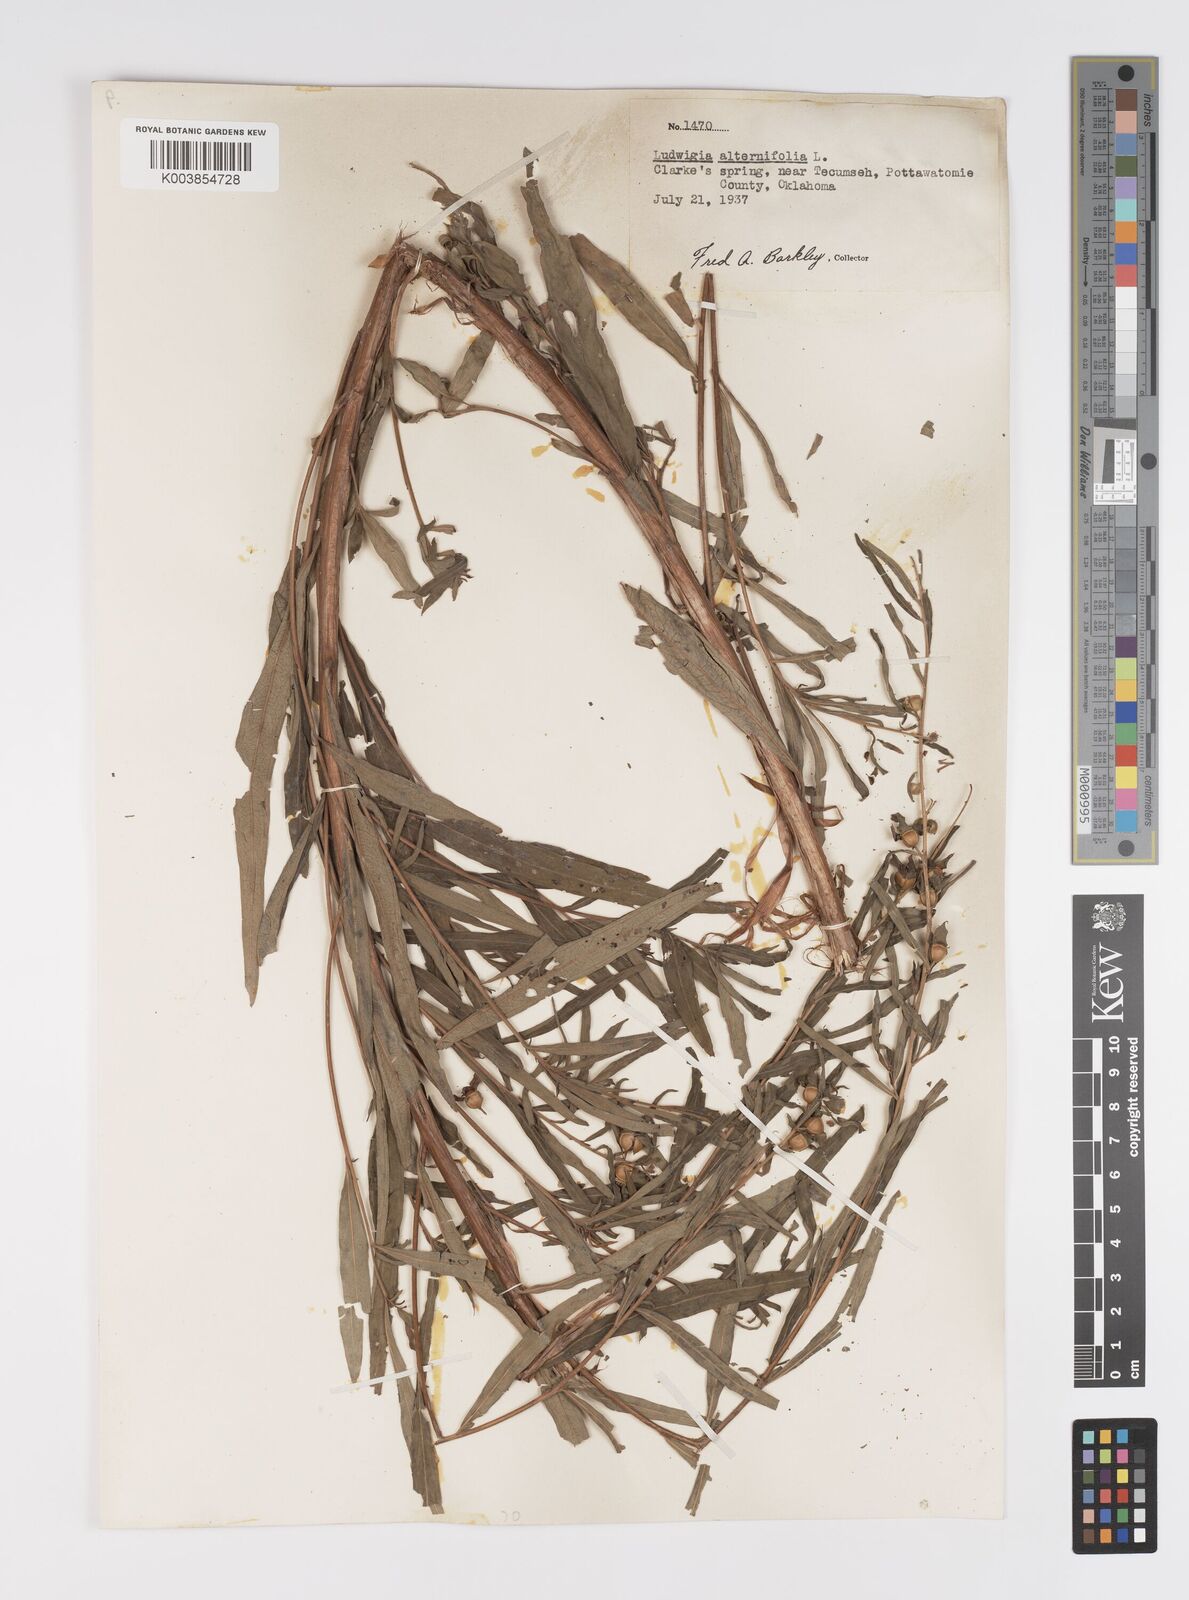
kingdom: Plantae
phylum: Tracheophyta
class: Magnoliopsida
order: Myrtales
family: Onagraceae
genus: Ludwigia
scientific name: Ludwigia alternifolia
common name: Rattlebox
